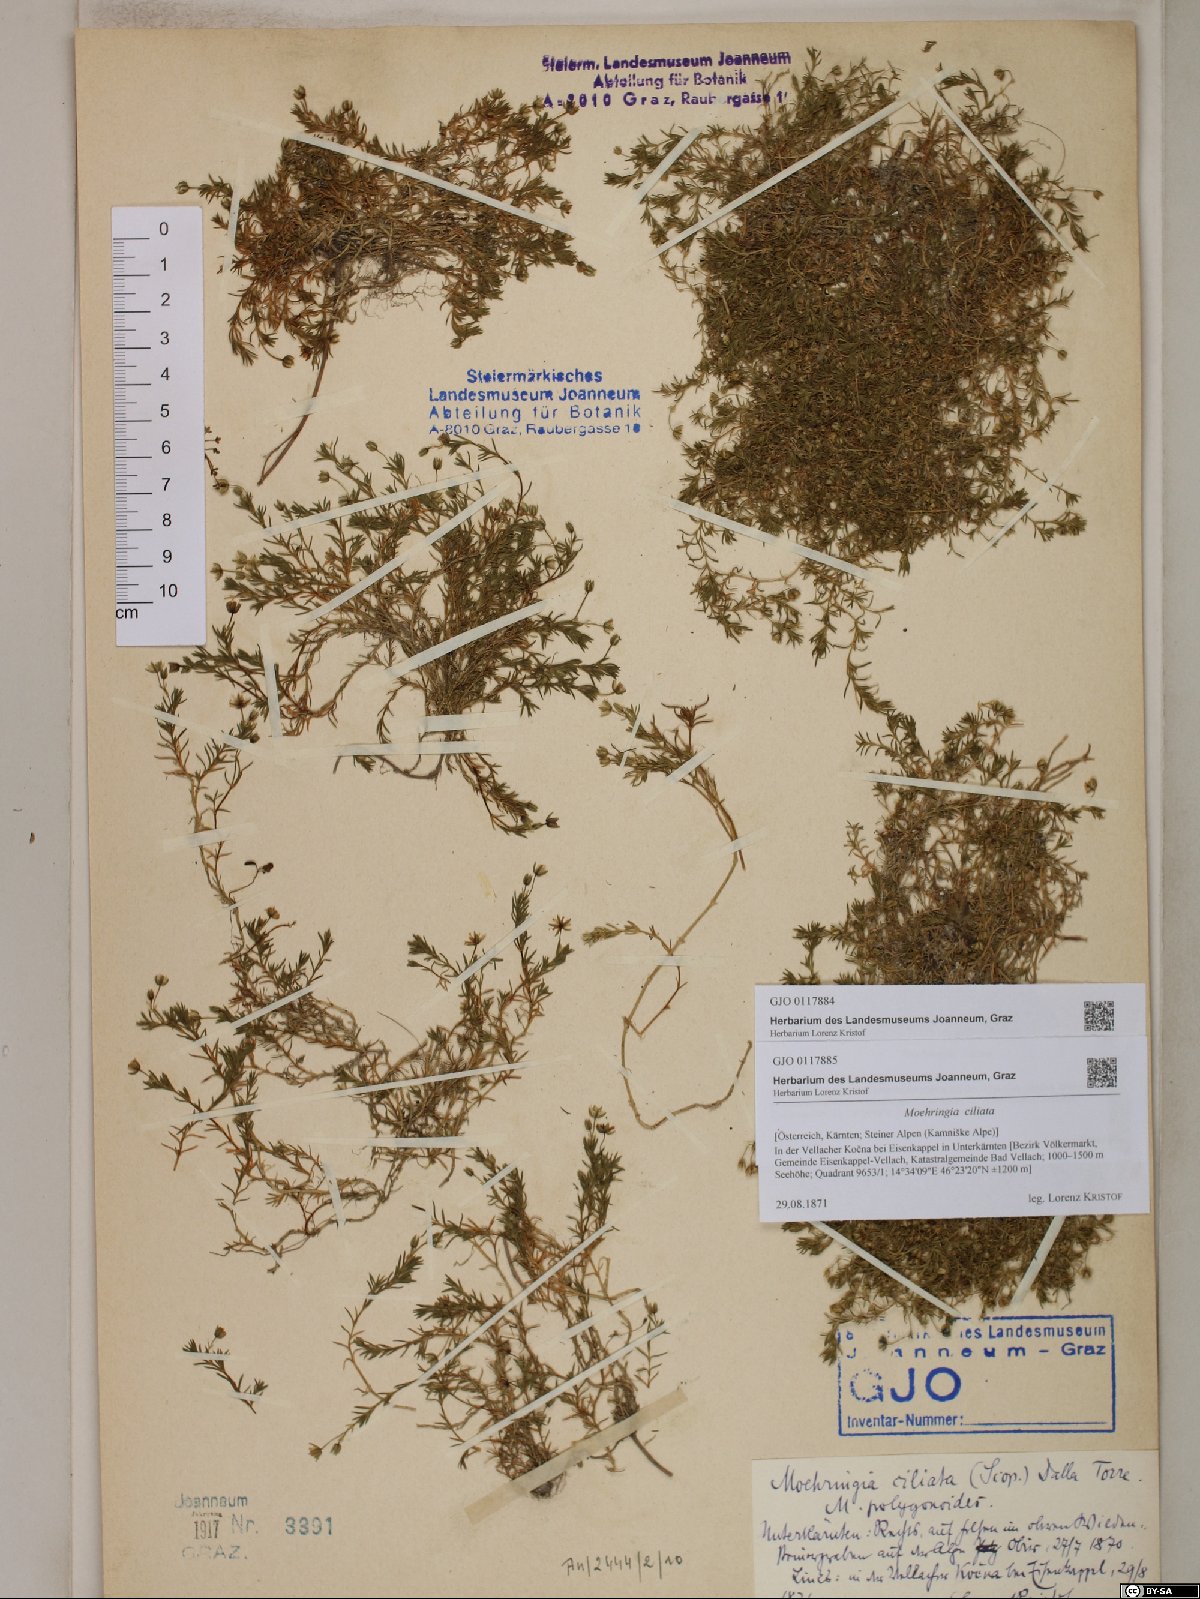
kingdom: Plantae
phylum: Tracheophyta
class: Magnoliopsida
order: Caryophyllales
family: Caryophyllaceae
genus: Moehringia
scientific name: Moehringia ciliata
